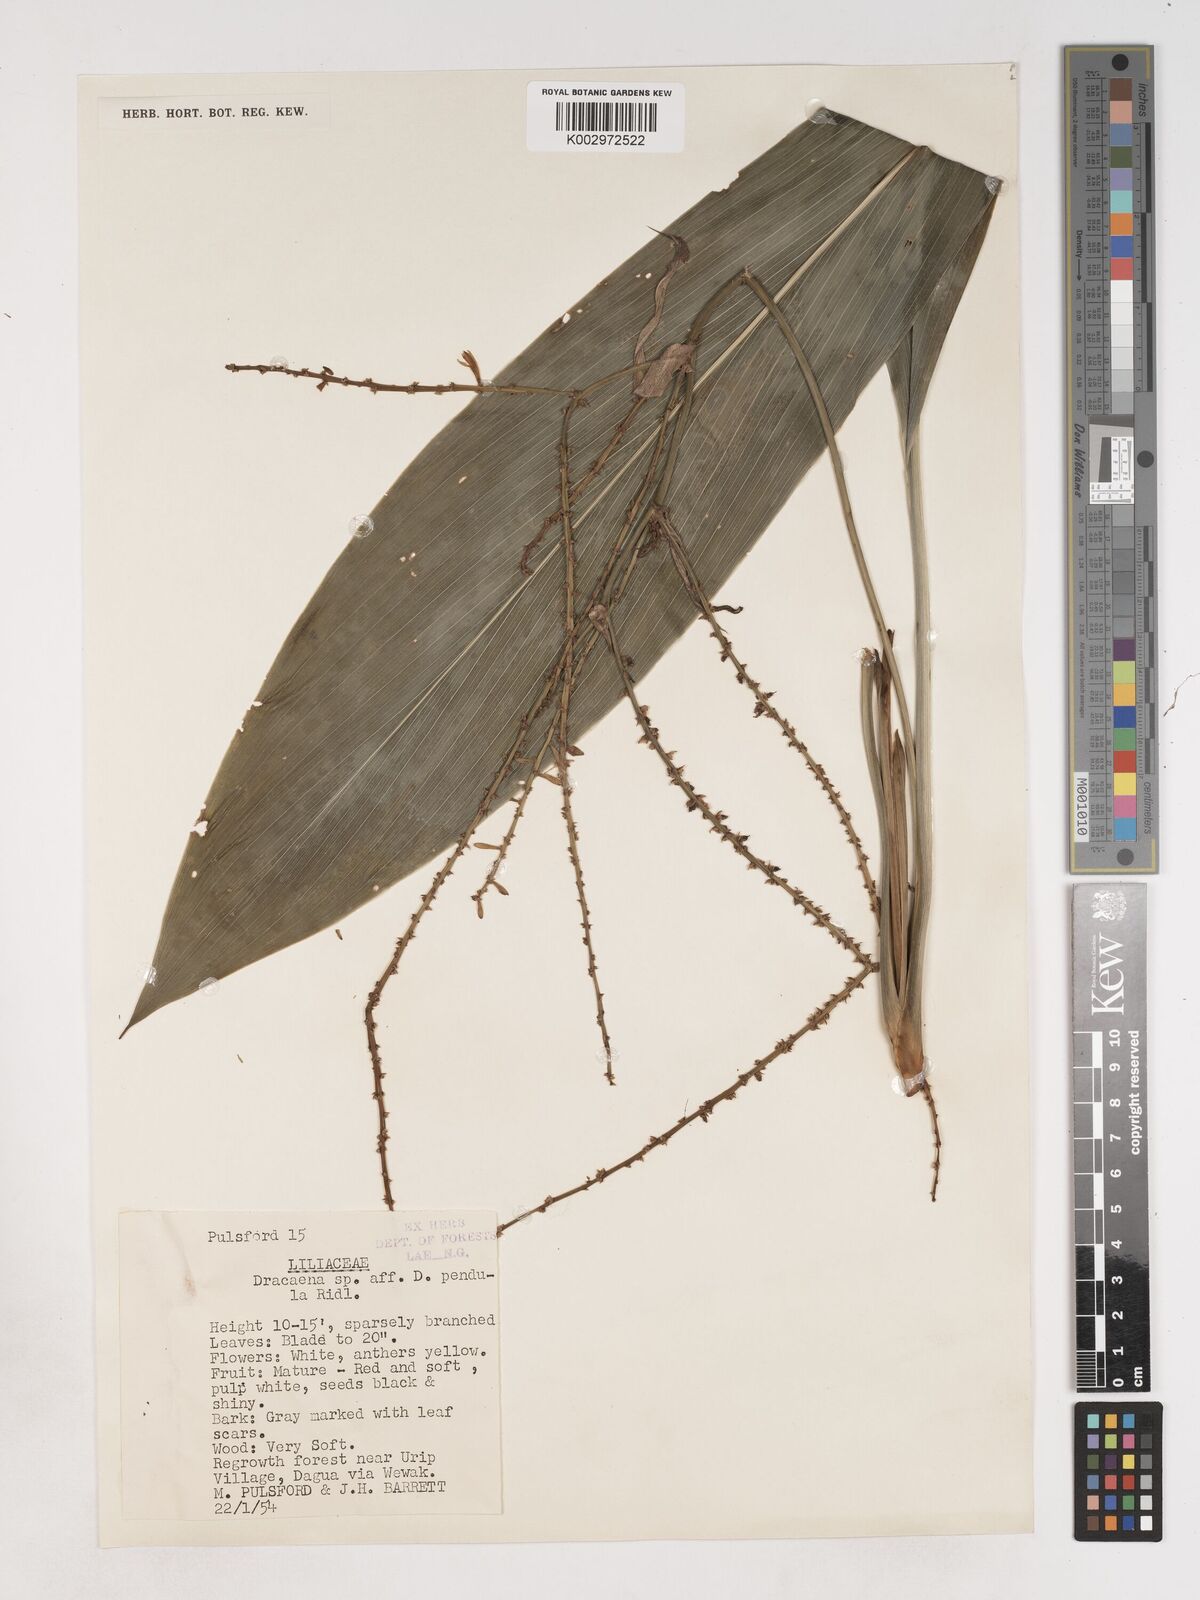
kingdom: Plantae
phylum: Tracheophyta
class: Liliopsida
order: Asparagales
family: Asparagaceae
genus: Cordyline
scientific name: Cordyline
